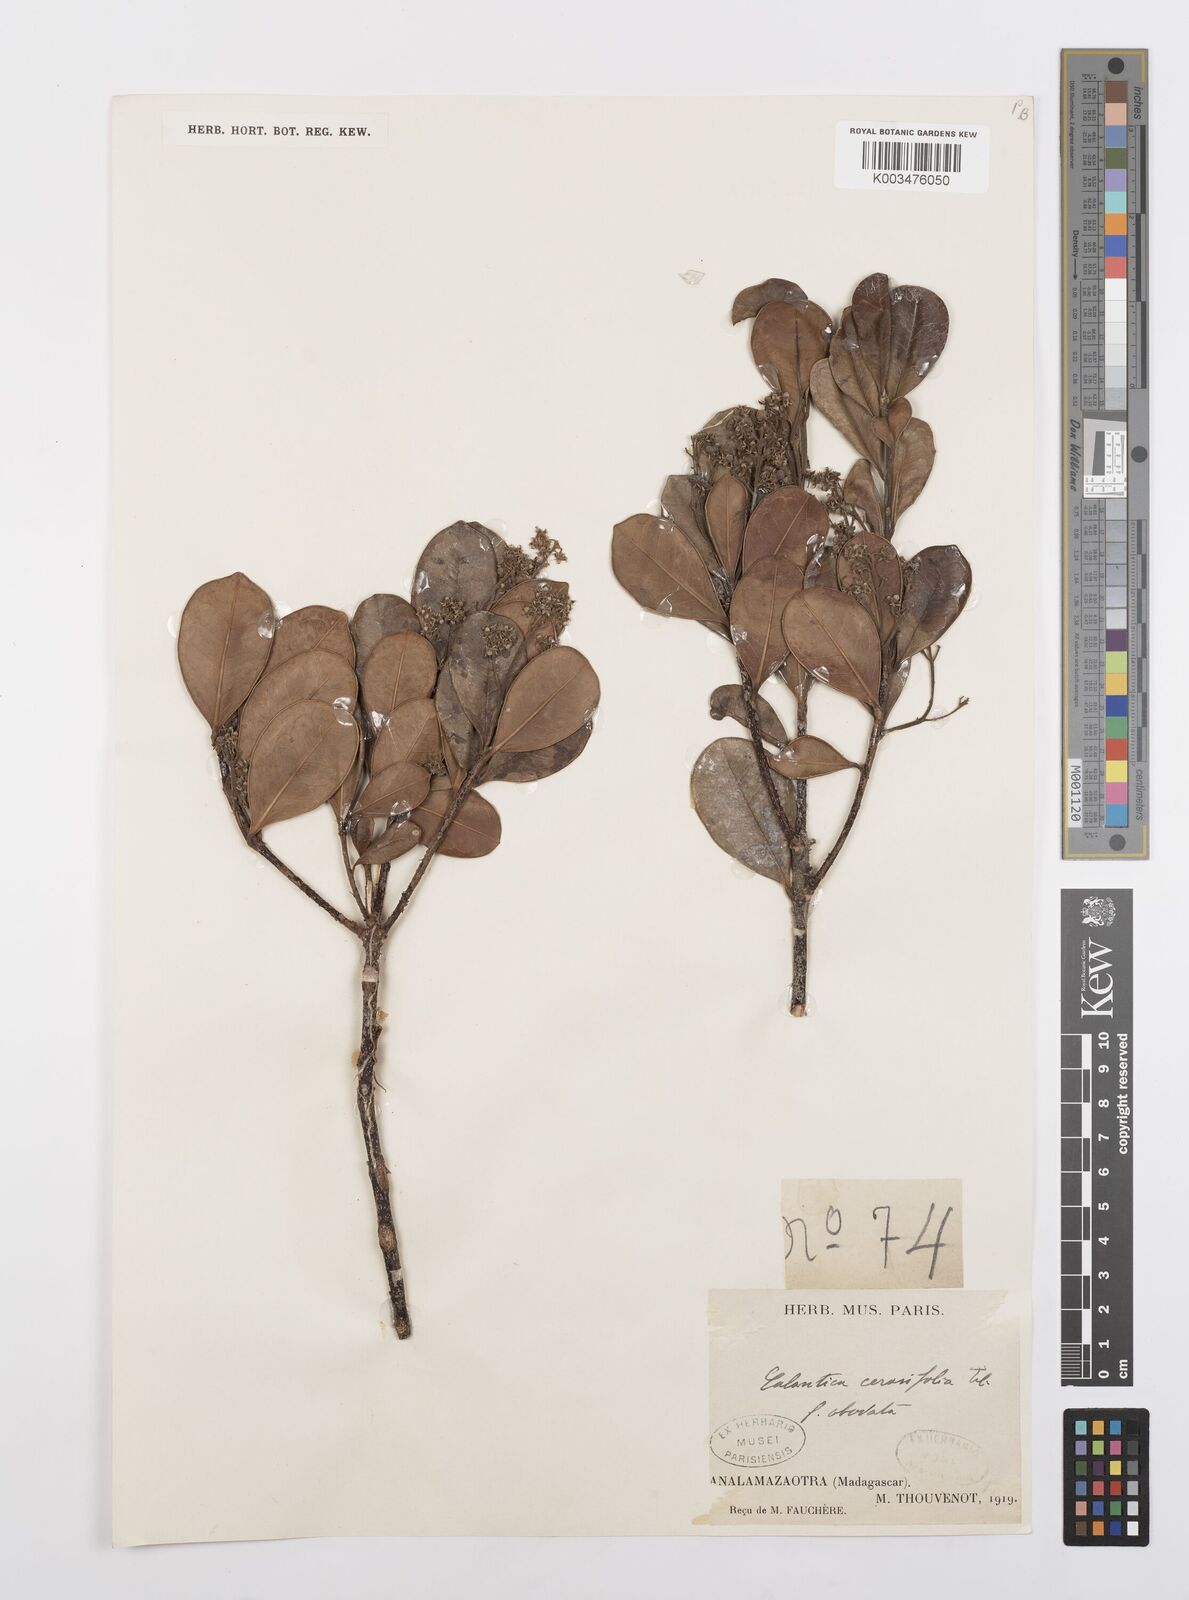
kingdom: Plantae
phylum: Tracheophyta
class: Magnoliopsida
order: Malpighiales
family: Salicaceae
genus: Calantica
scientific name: Calantica cerasifolia
